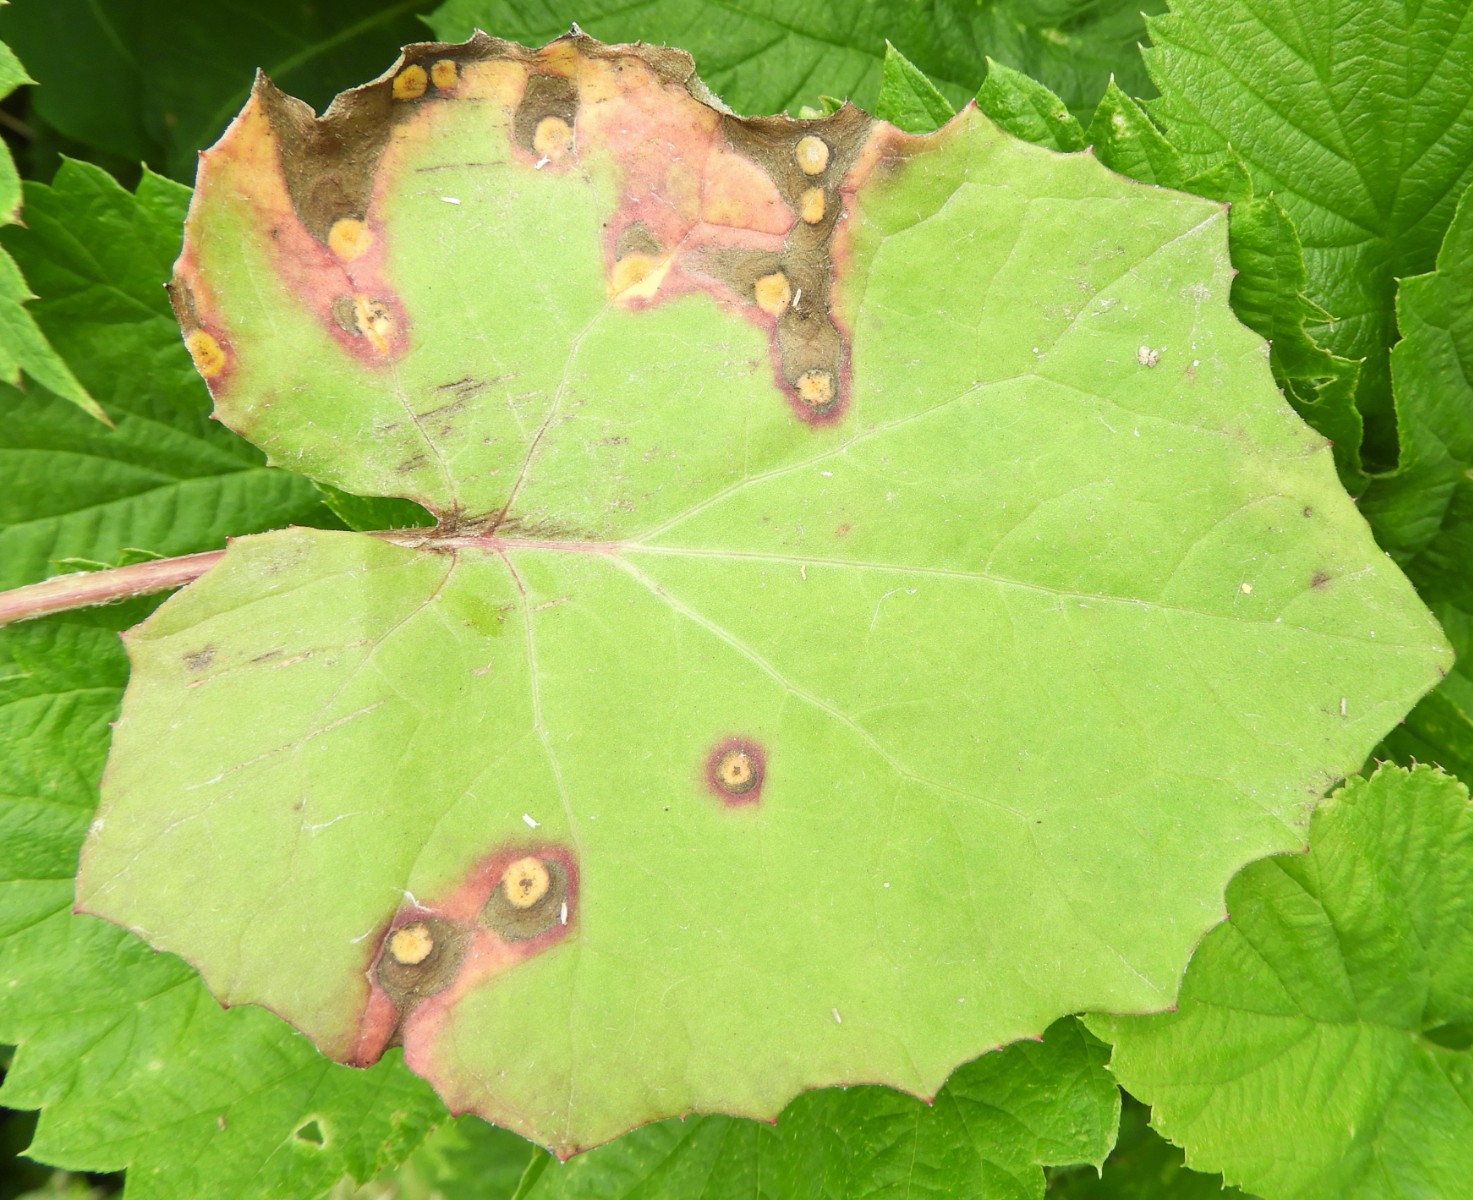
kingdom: Fungi
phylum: Basidiomycota
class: Pucciniomycetes
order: Pucciniales
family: Pucciniaceae
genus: Puccinia
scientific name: Puccinia poarum
